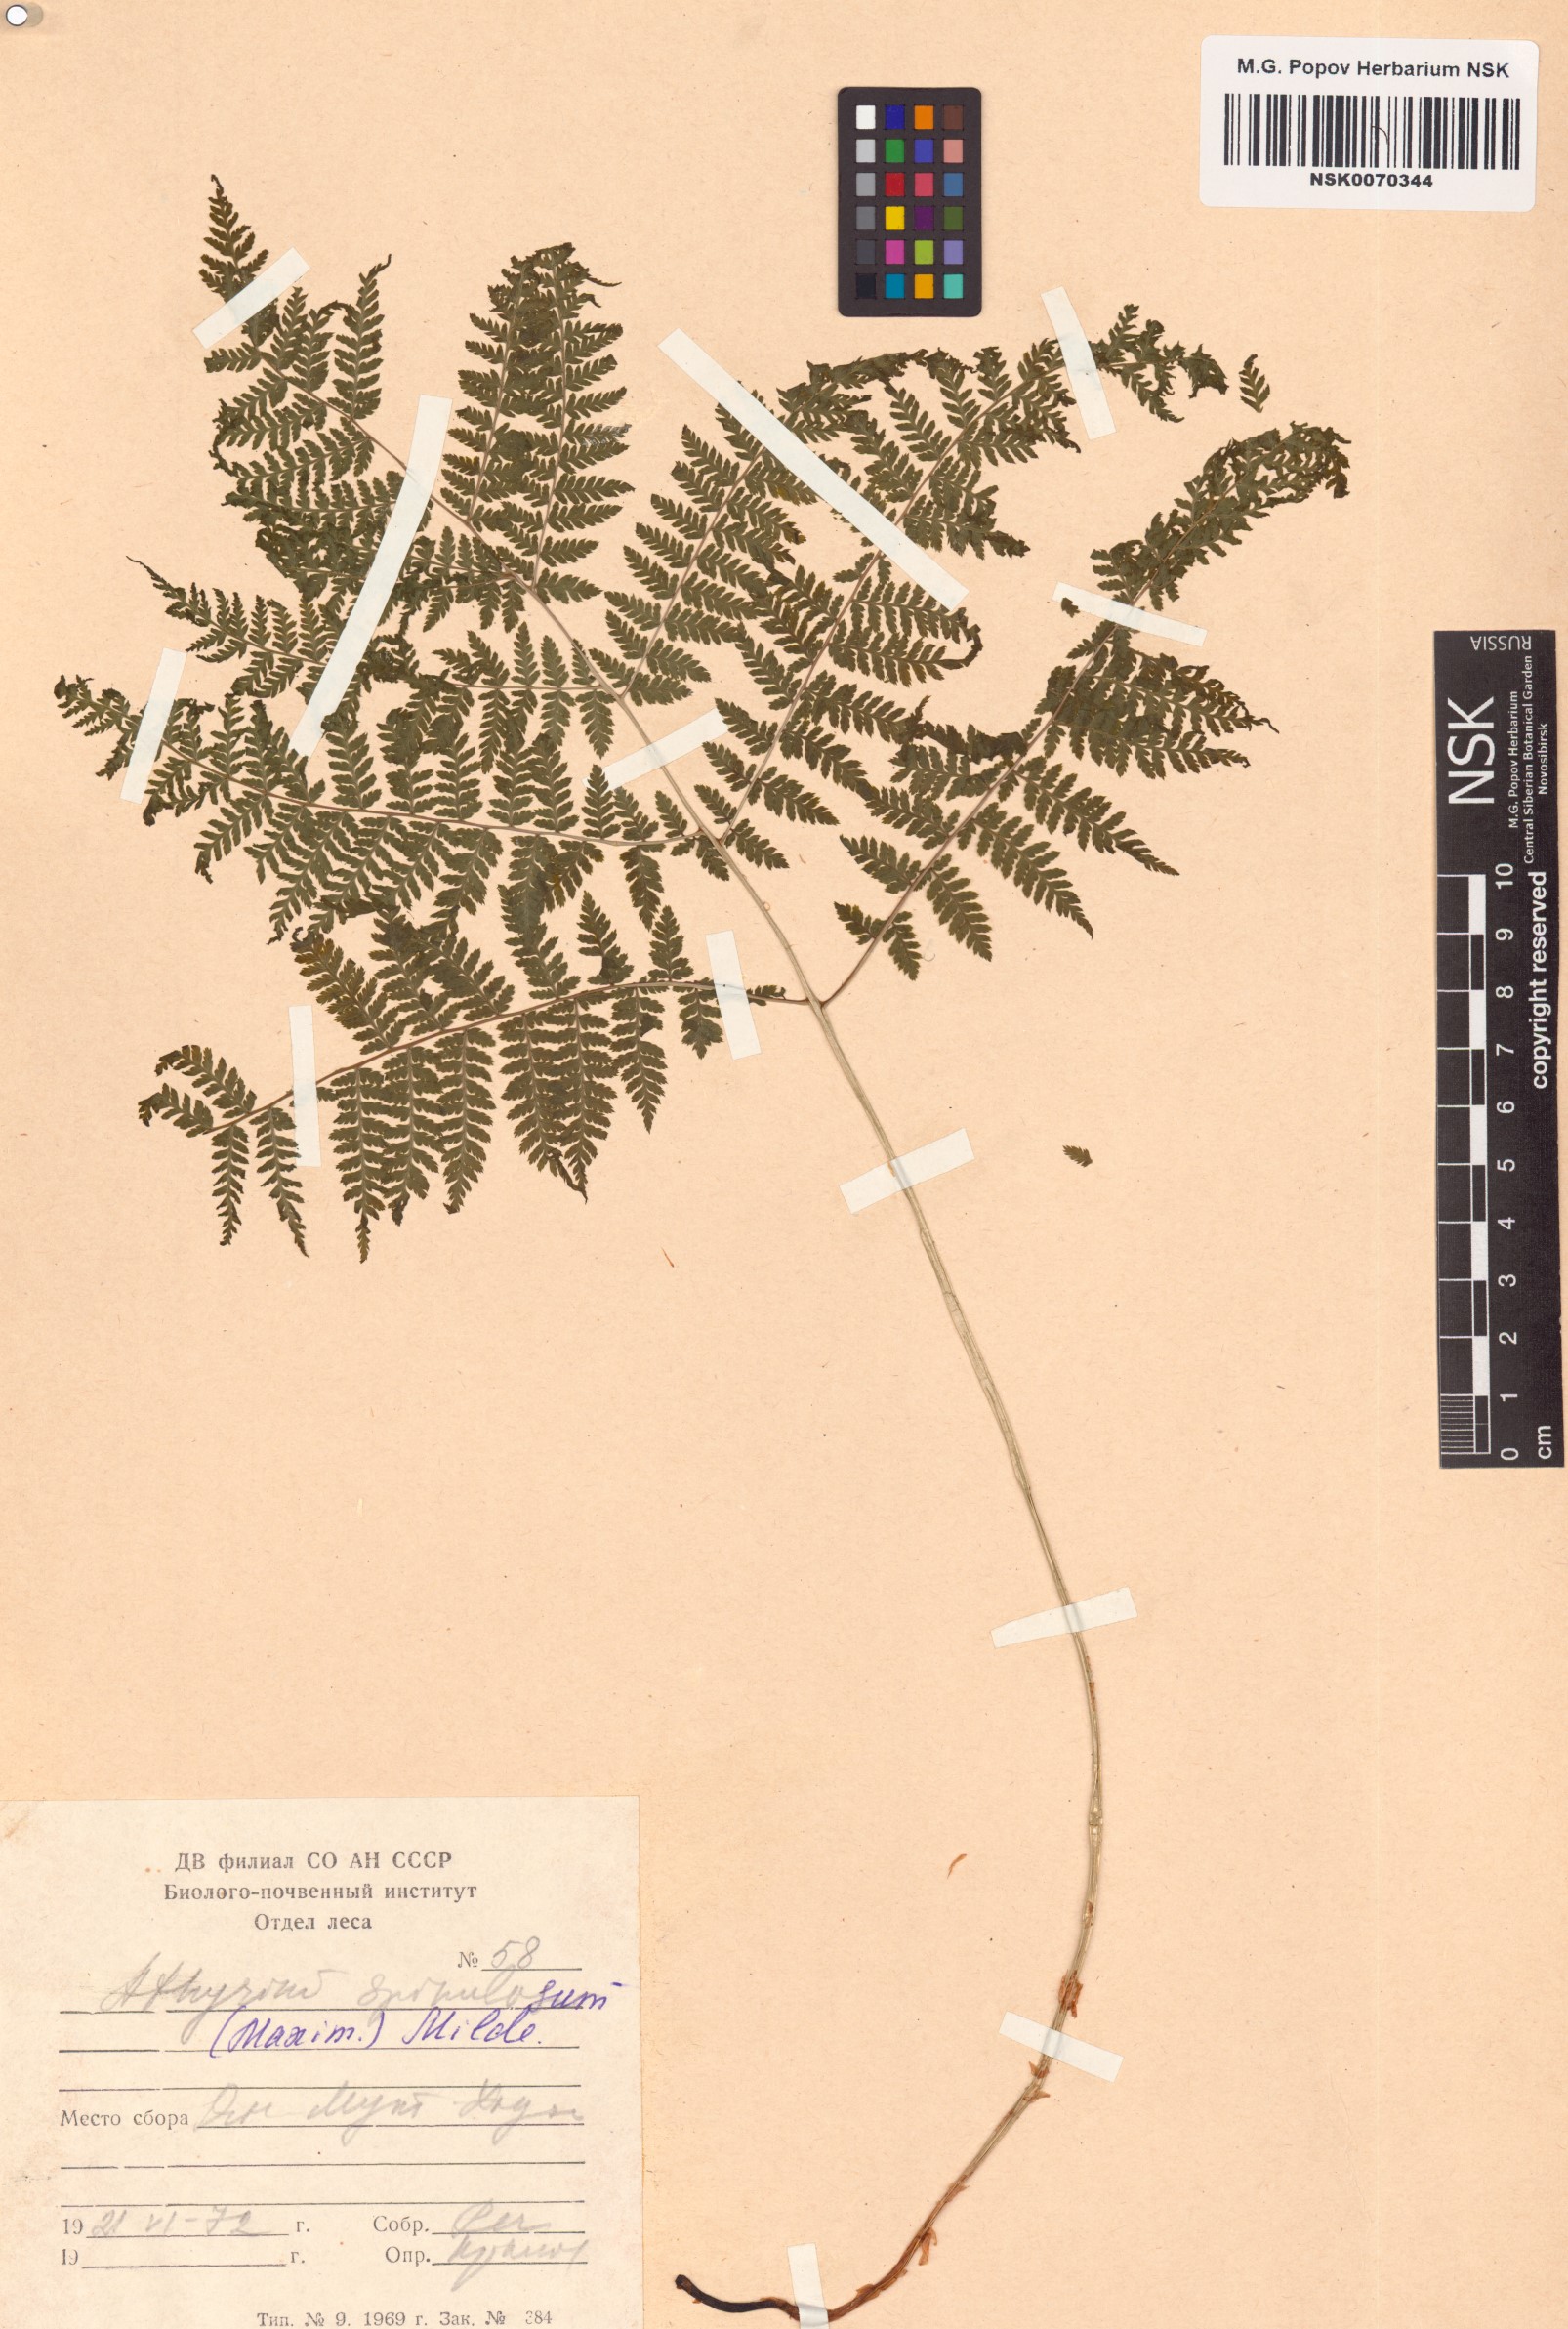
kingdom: Plantae
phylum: Tracheophyta
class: Polypodiopsida
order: Polypodiales
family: Athyriaceae
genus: Athyrium
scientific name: Athyrium spinulosum
